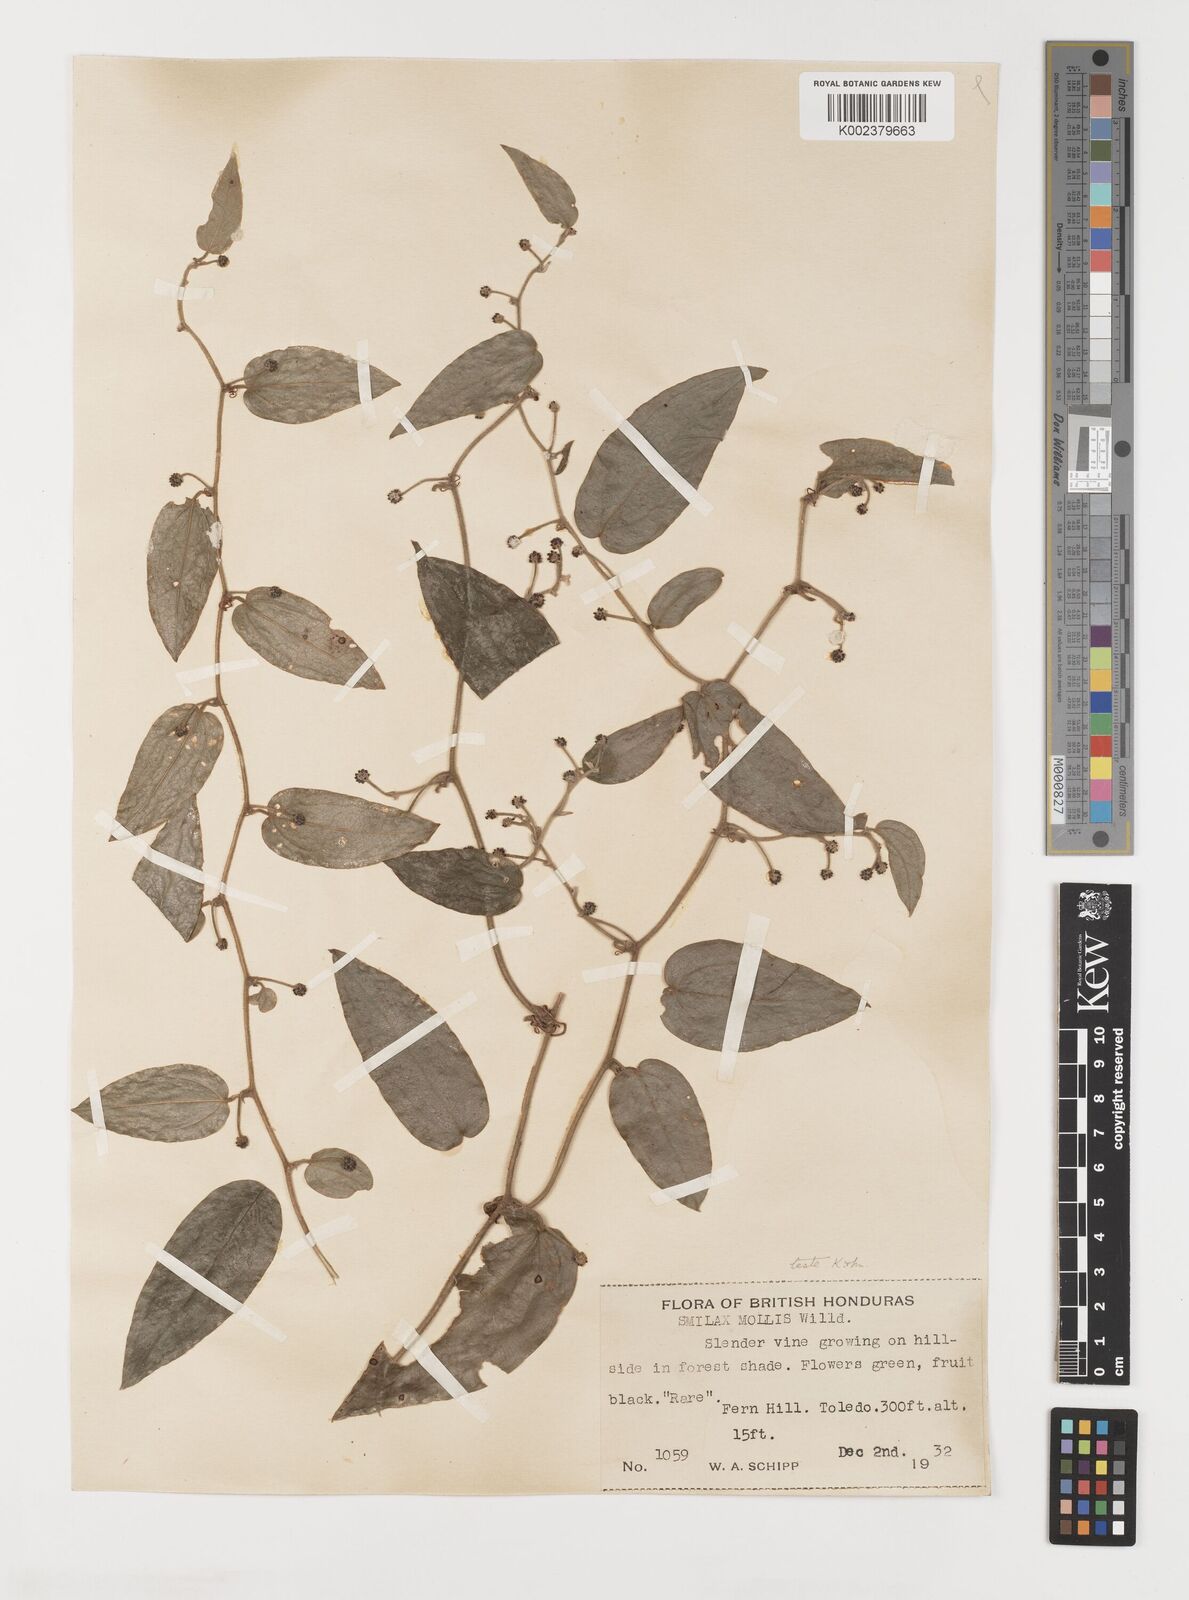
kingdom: Plantae
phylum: Tracheophyta
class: Liliopsida
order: Liliales
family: Smilacaceae
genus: Smilax
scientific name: Smilax mollis
